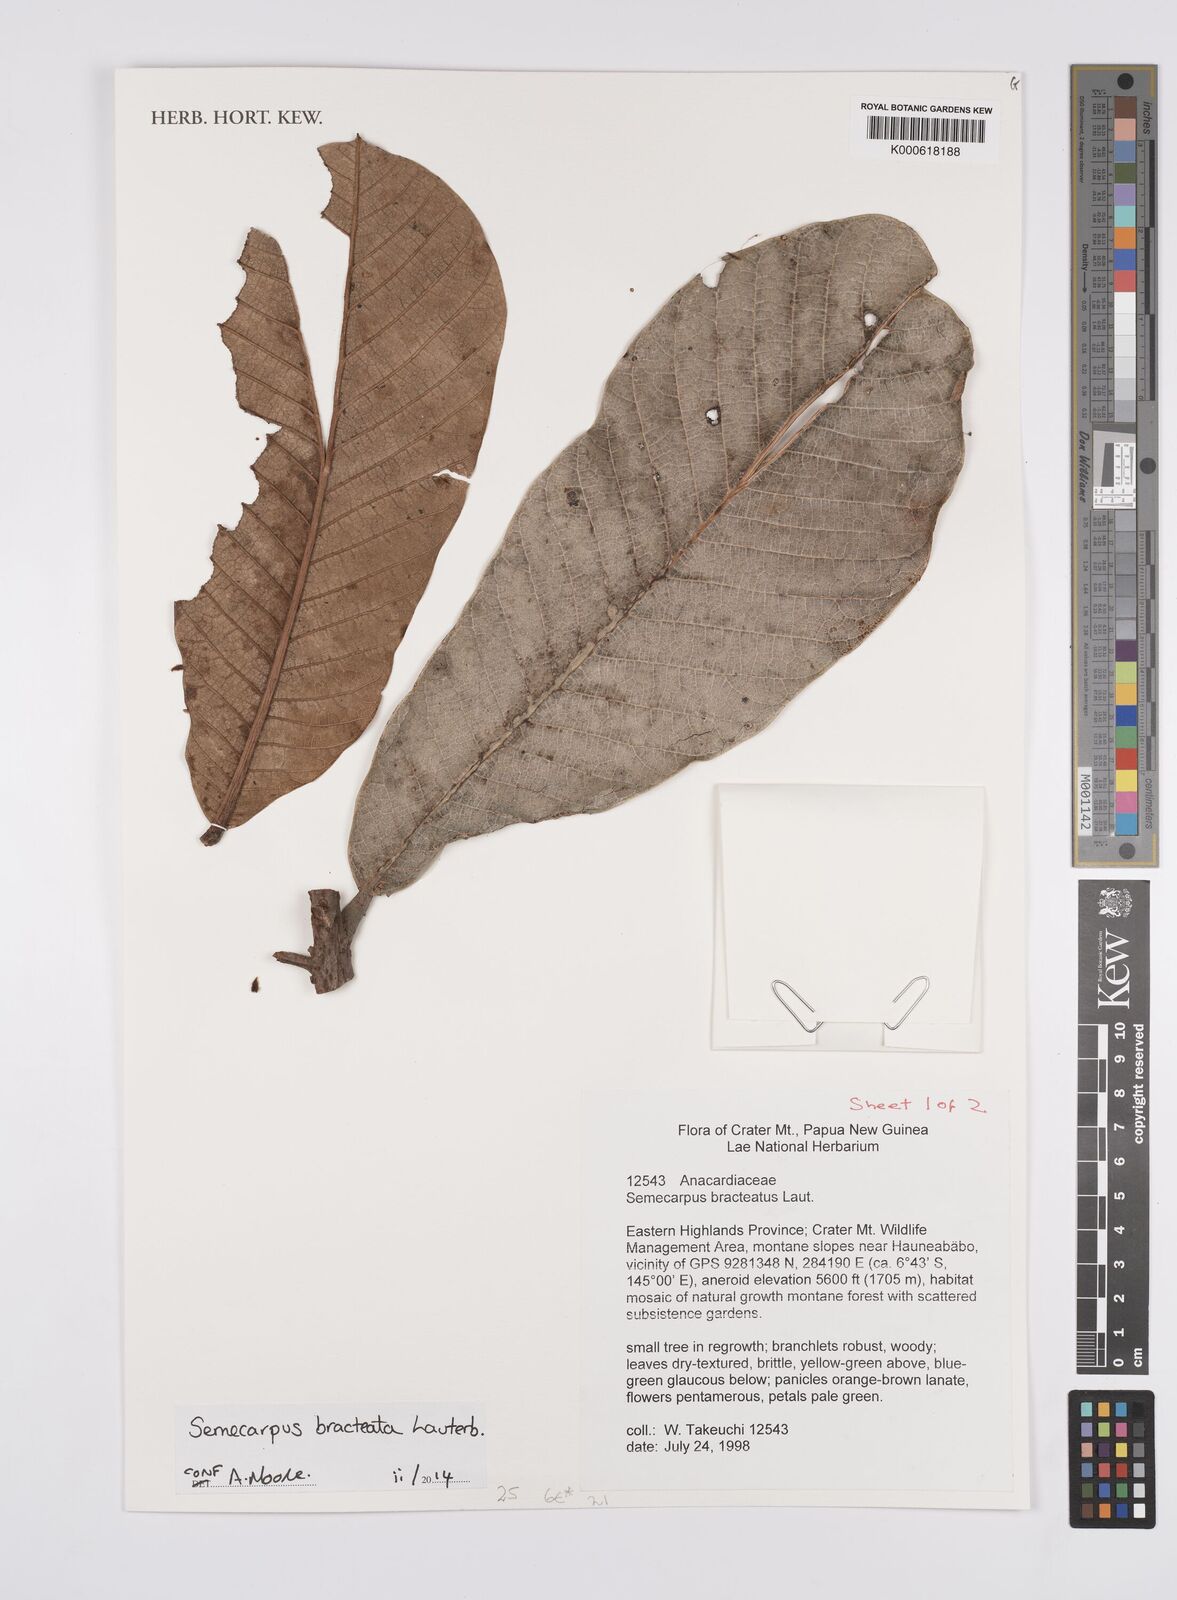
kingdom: Plantae
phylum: Tracheophyta
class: Magnoliopsida
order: Sapindales
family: Anacardiaceae
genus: Semecarpus
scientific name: Semecarpus bracteatus
